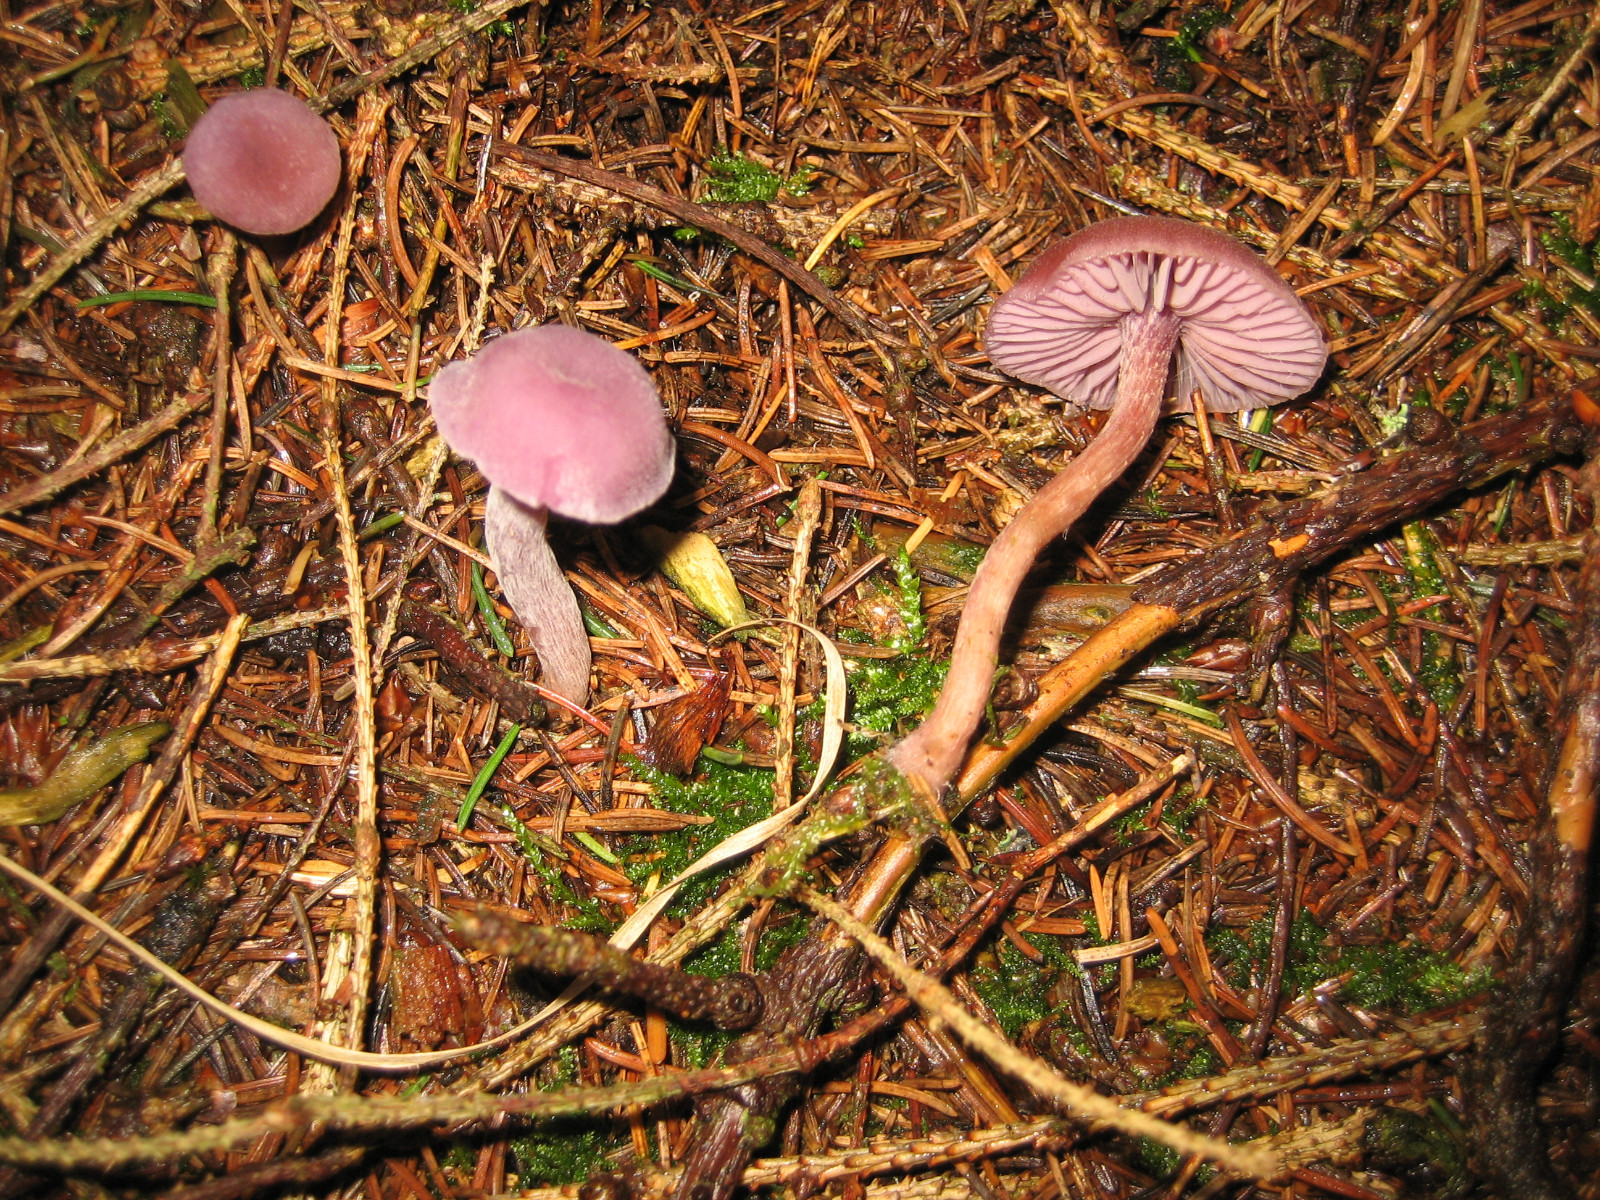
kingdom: Fungi
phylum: Basidiomycota
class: Agaricomycetes
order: Agaricales
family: Hydnangiaceae
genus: Laccaria
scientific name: Laccaria amethystina
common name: violet ametysthat
